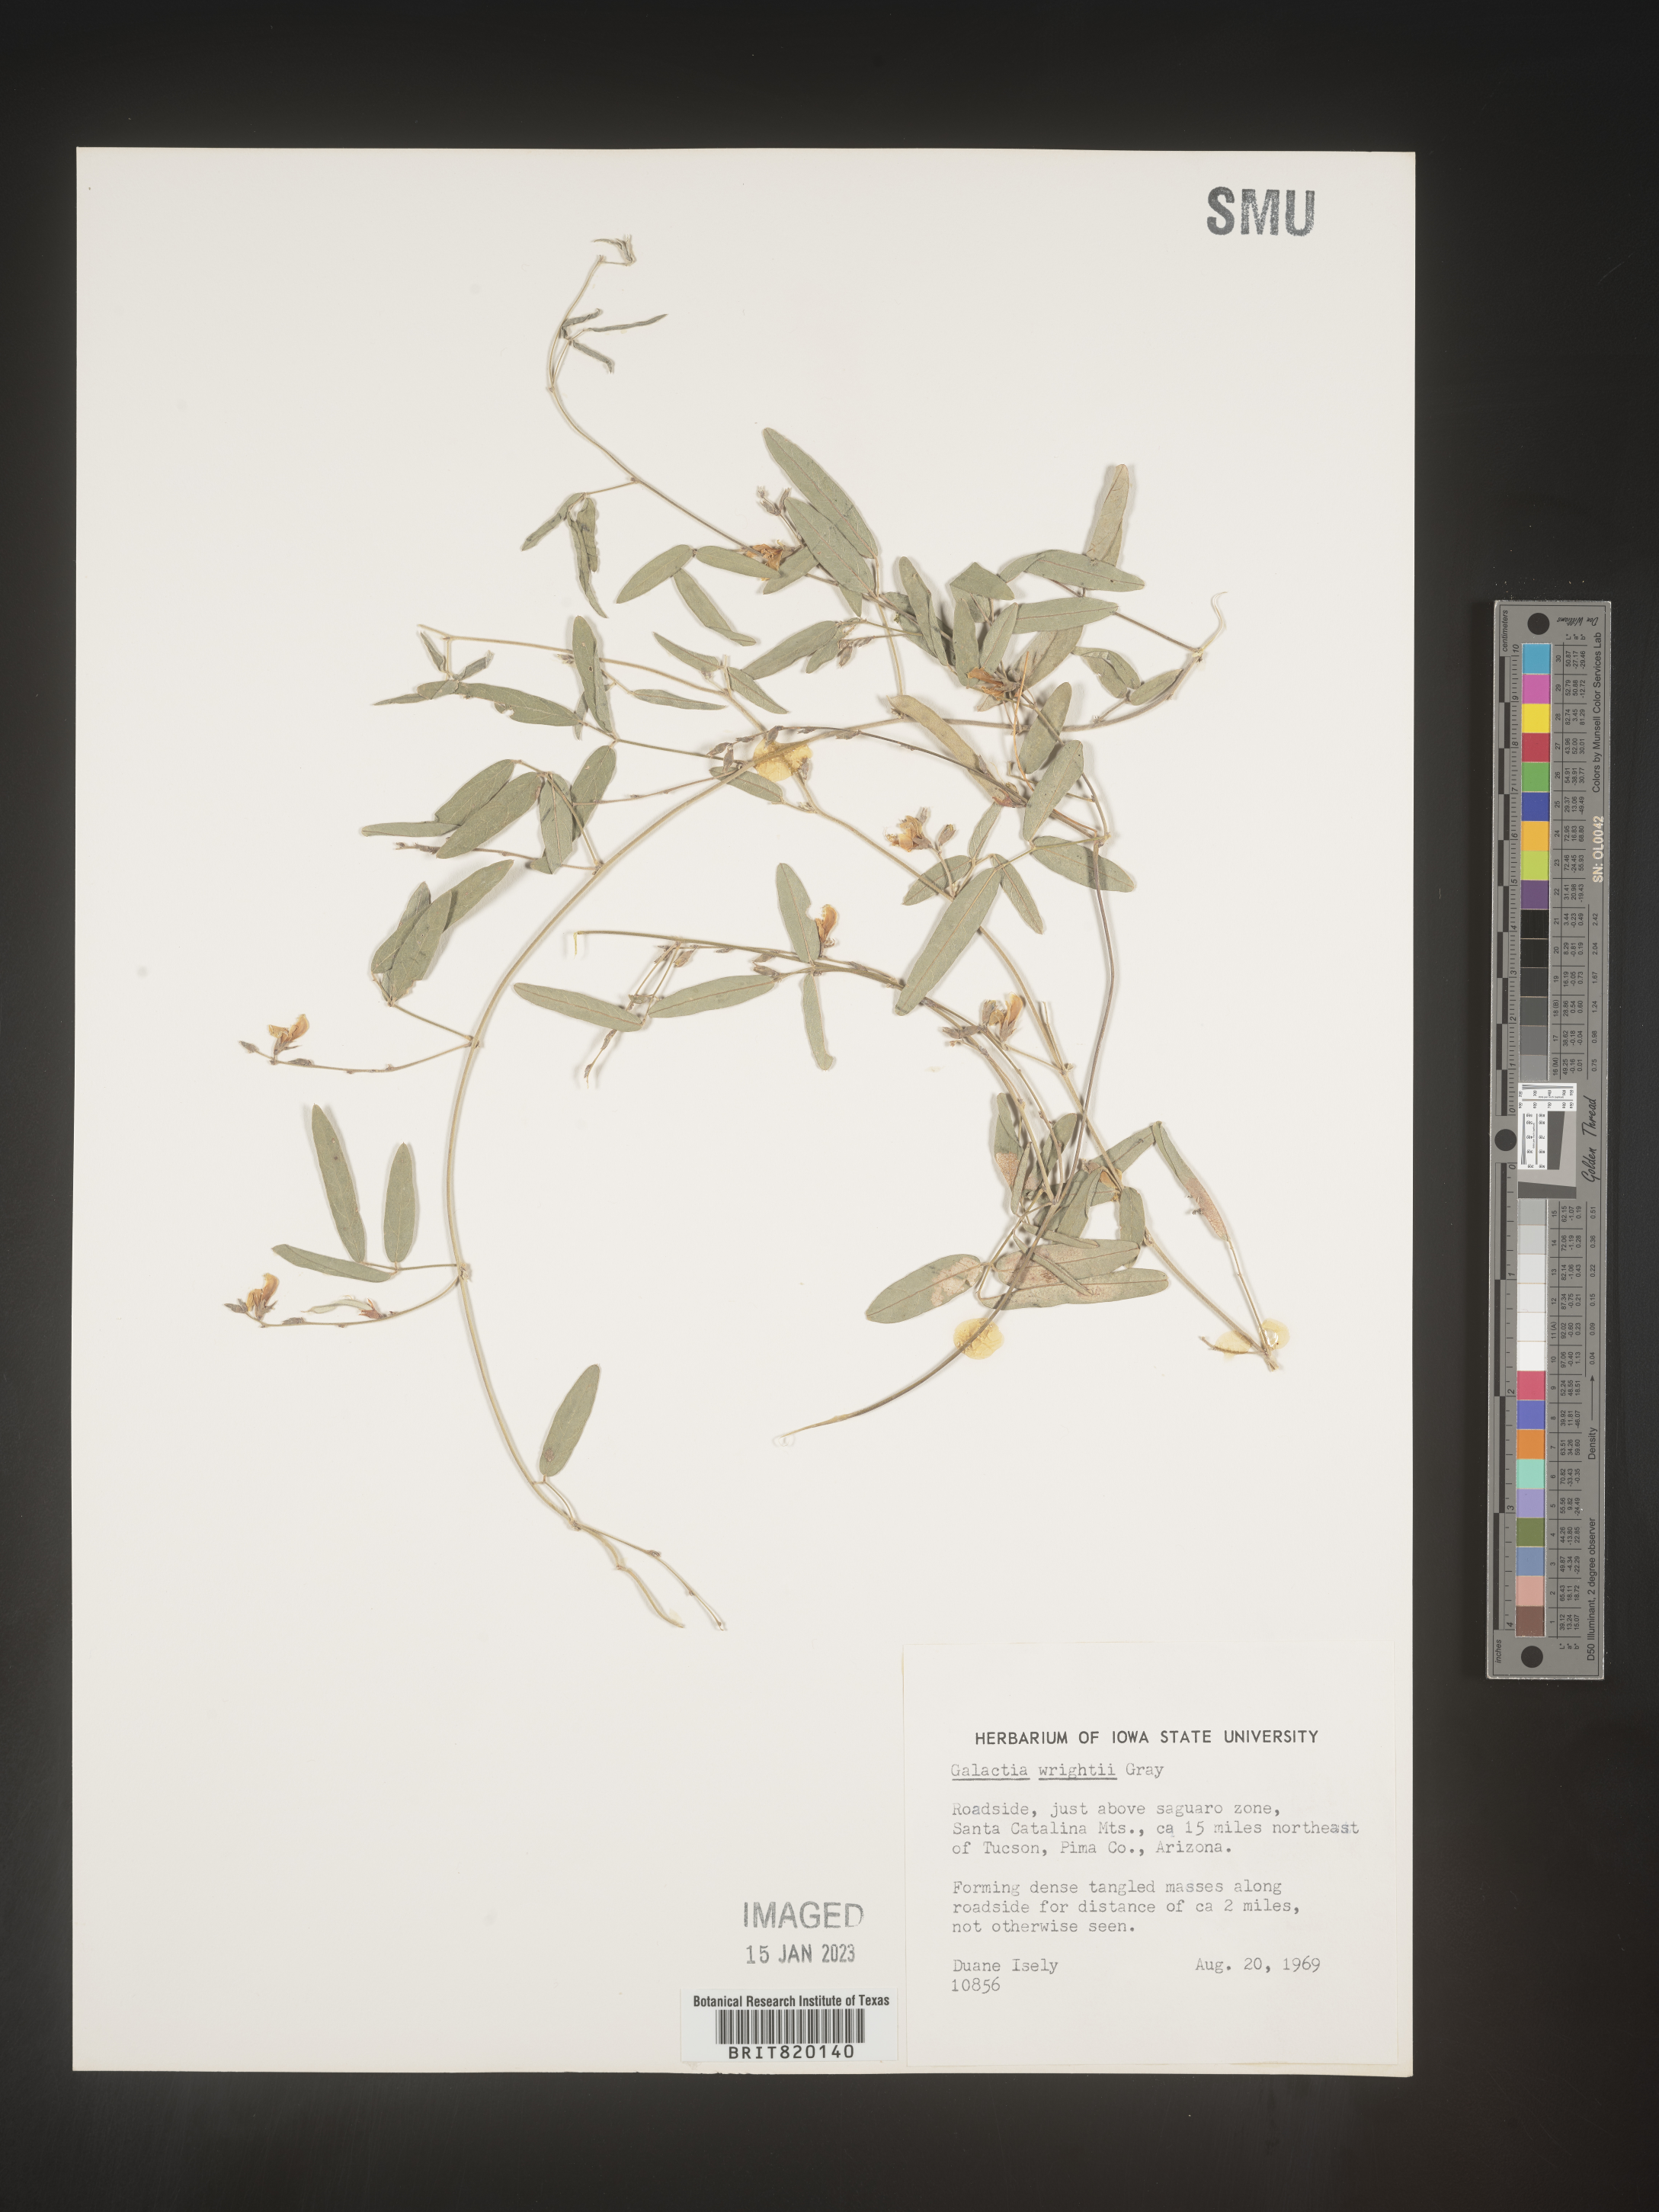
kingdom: Plantae
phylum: Tracheophyta
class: Magnoliopsida
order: Fabales
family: Fabaceae
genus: Galactia
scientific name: Galactia wrightii
